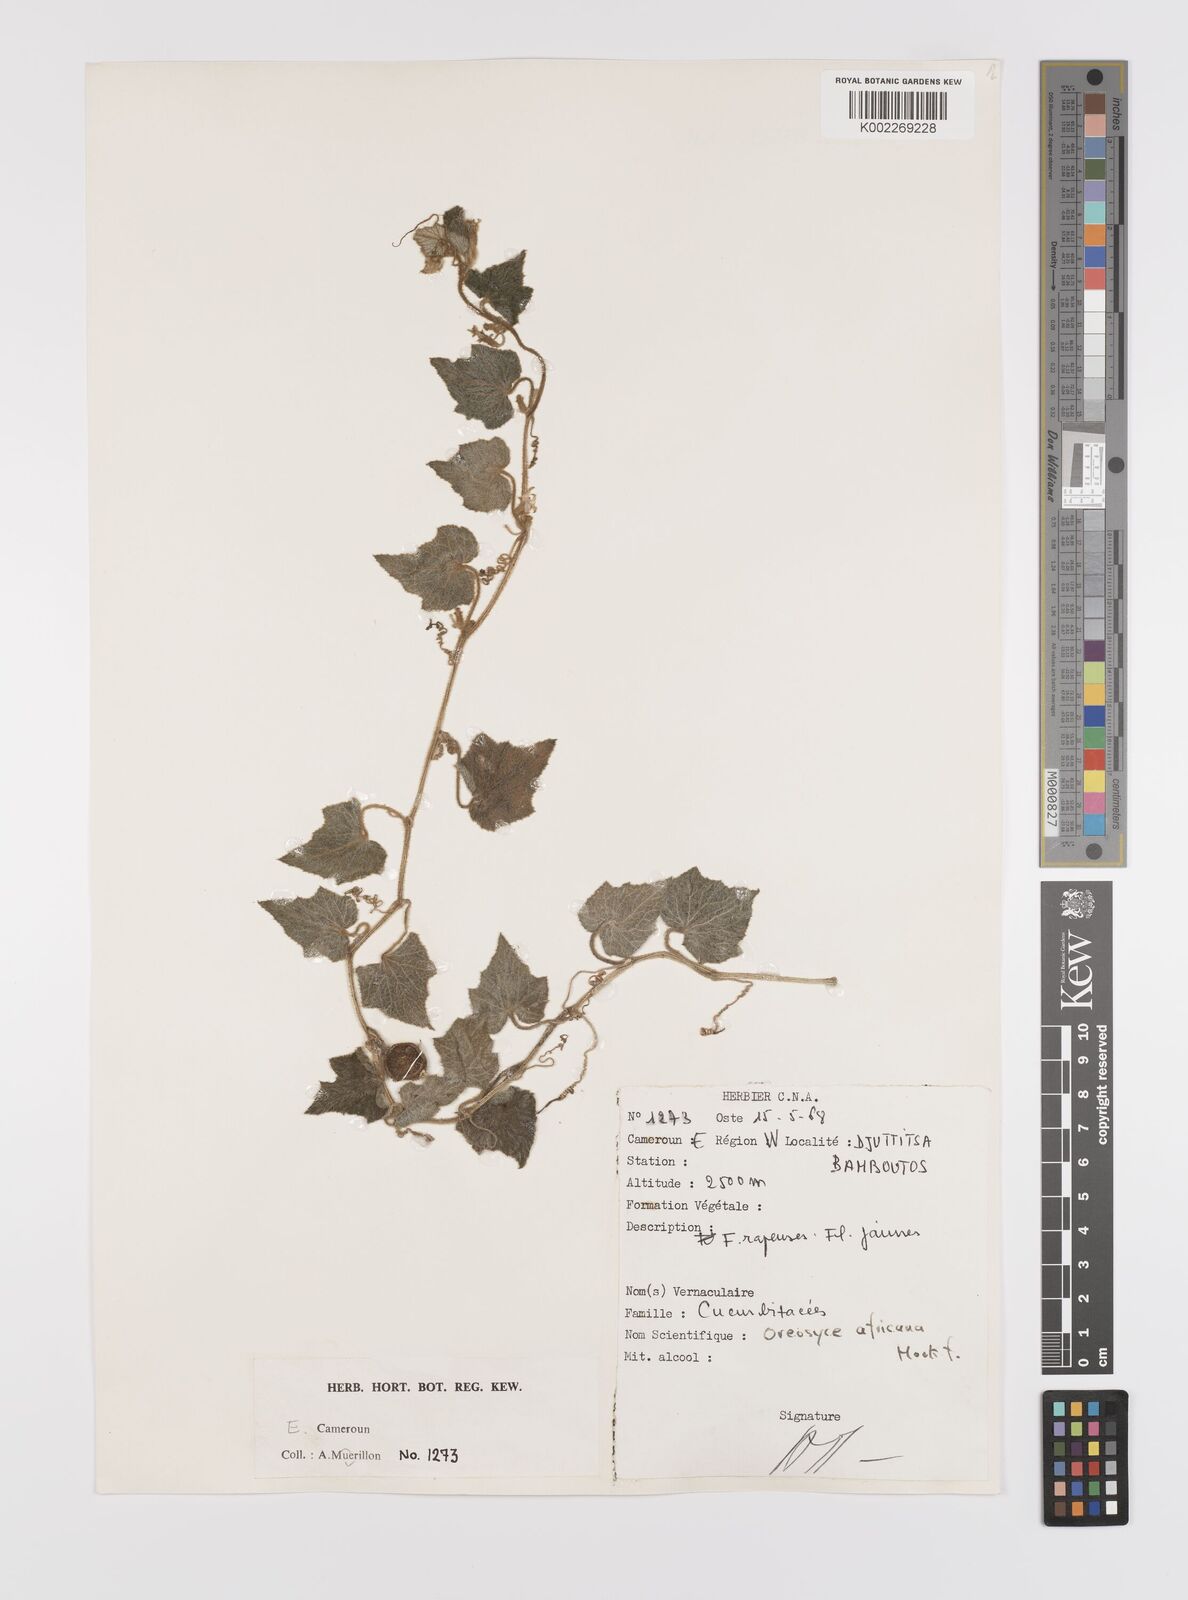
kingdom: Plantae
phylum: Tracheophyta
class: Magnoliopsida
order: Cucurbitales
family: Cucurbitaceae
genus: Cucumis
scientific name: Cucumis oreosyce
